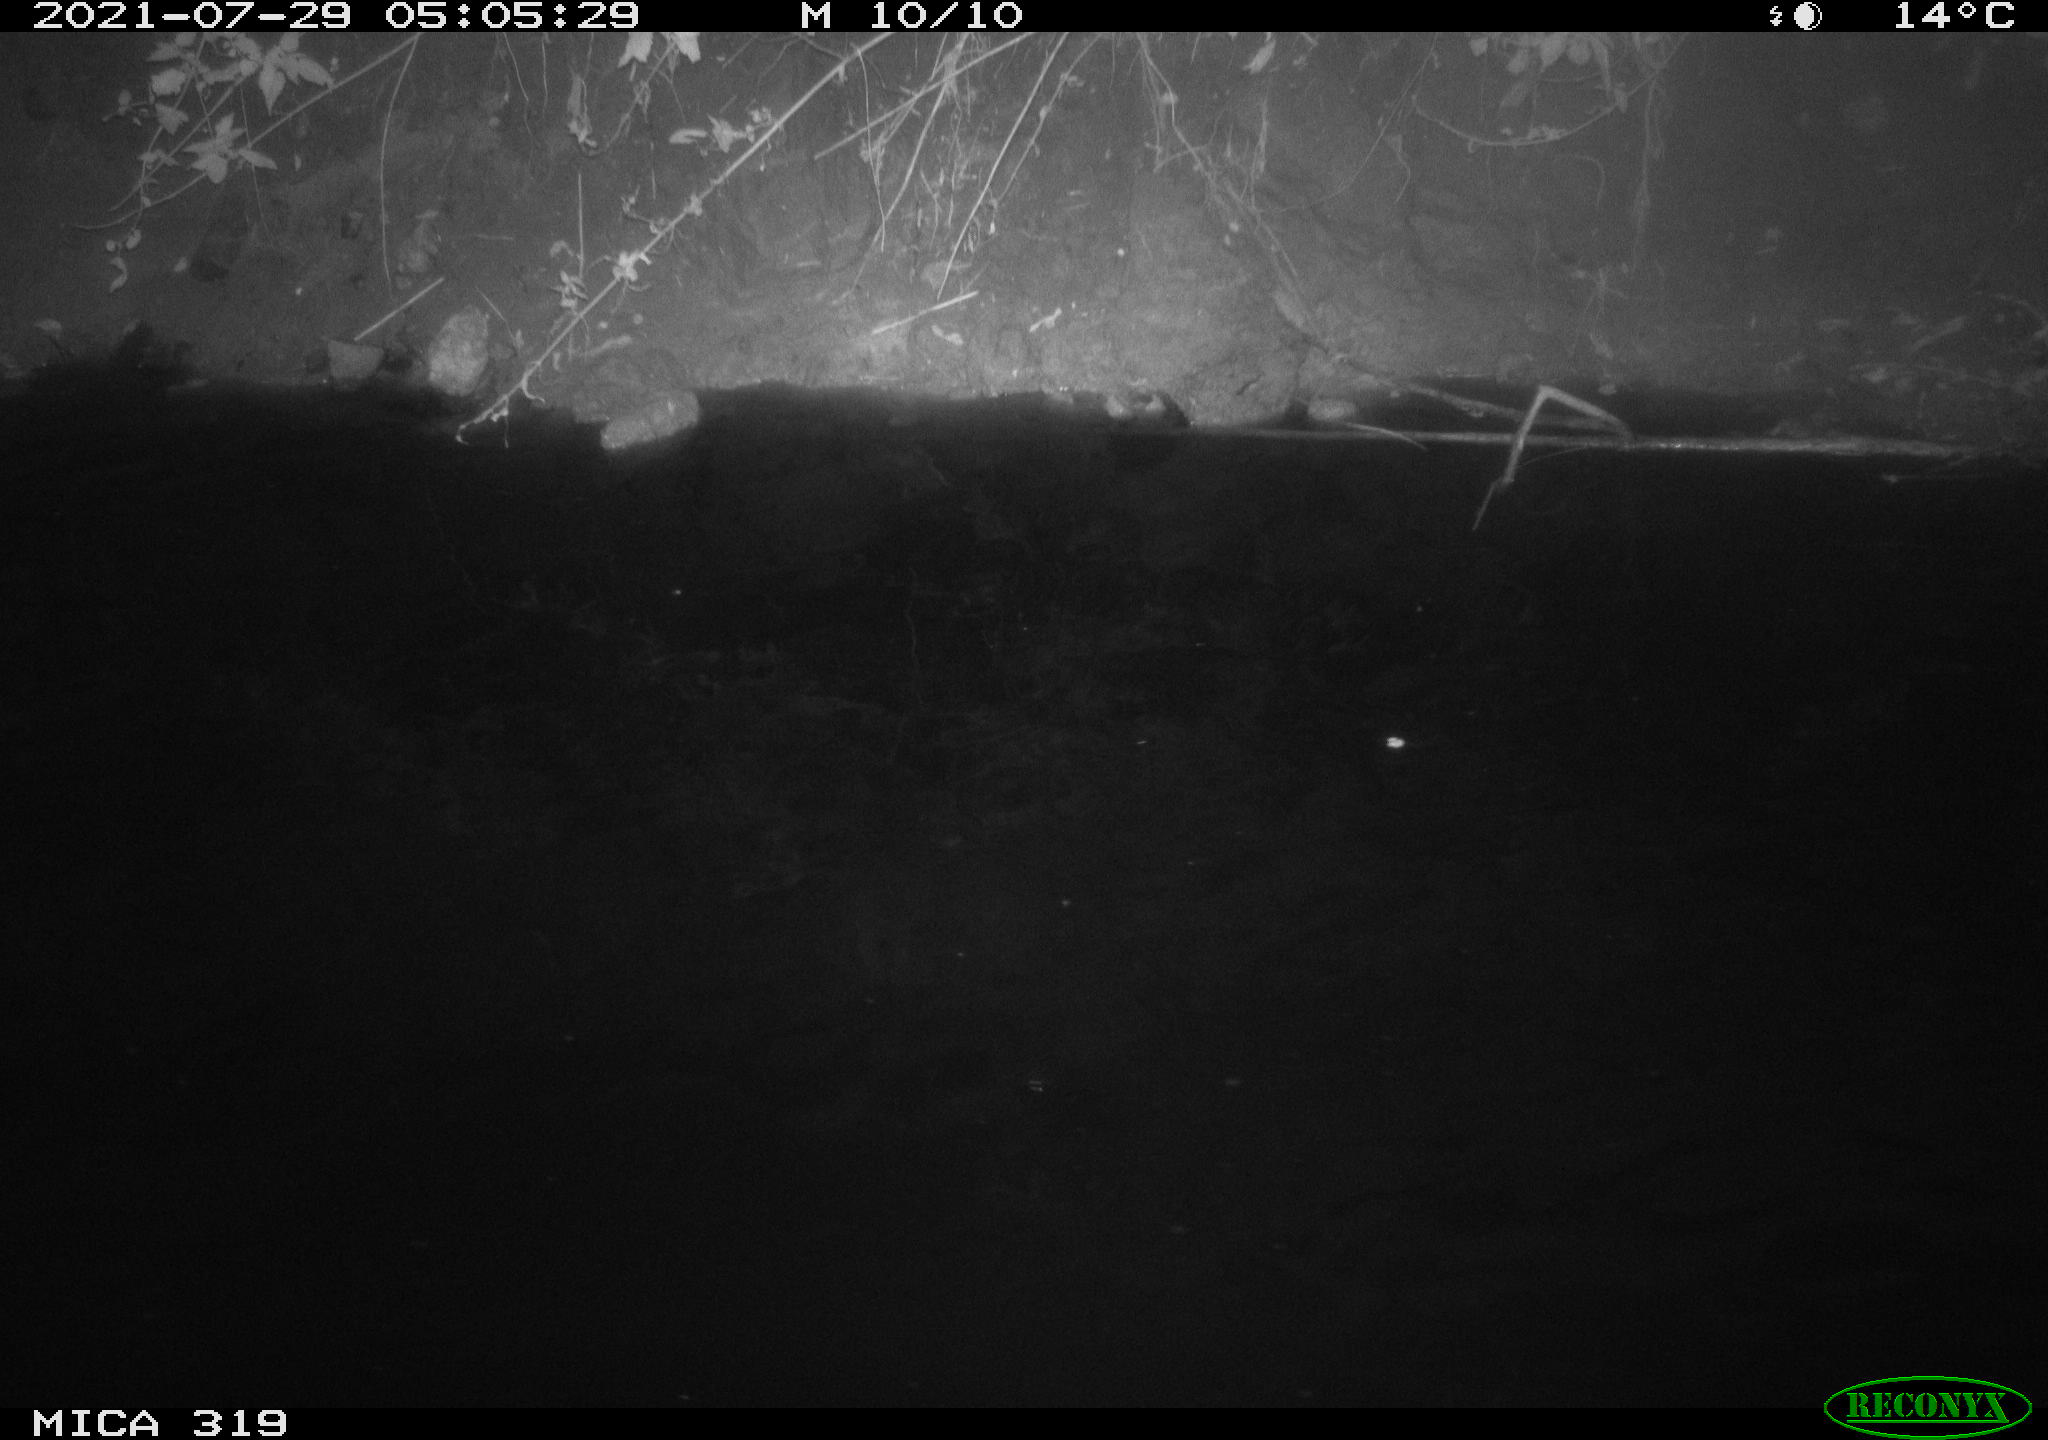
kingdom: Animalia
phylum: Chordata
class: Aves
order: Anseriformes
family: Anatidae
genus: Anas
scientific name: Anas platyrhynchos
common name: Mallard
